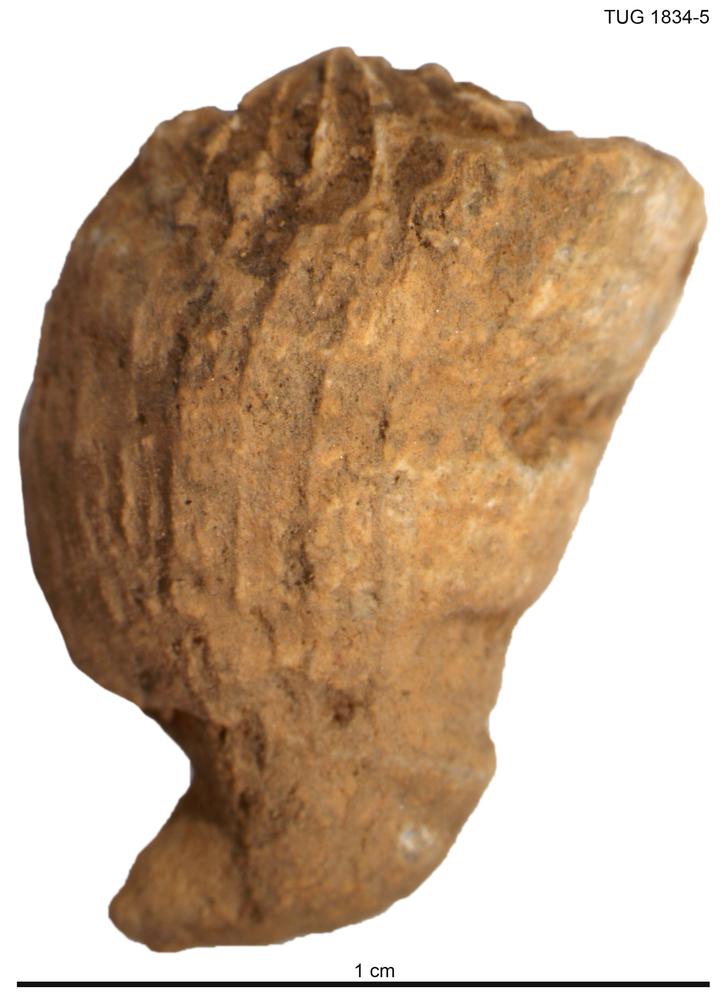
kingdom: Animalia
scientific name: Animalia
